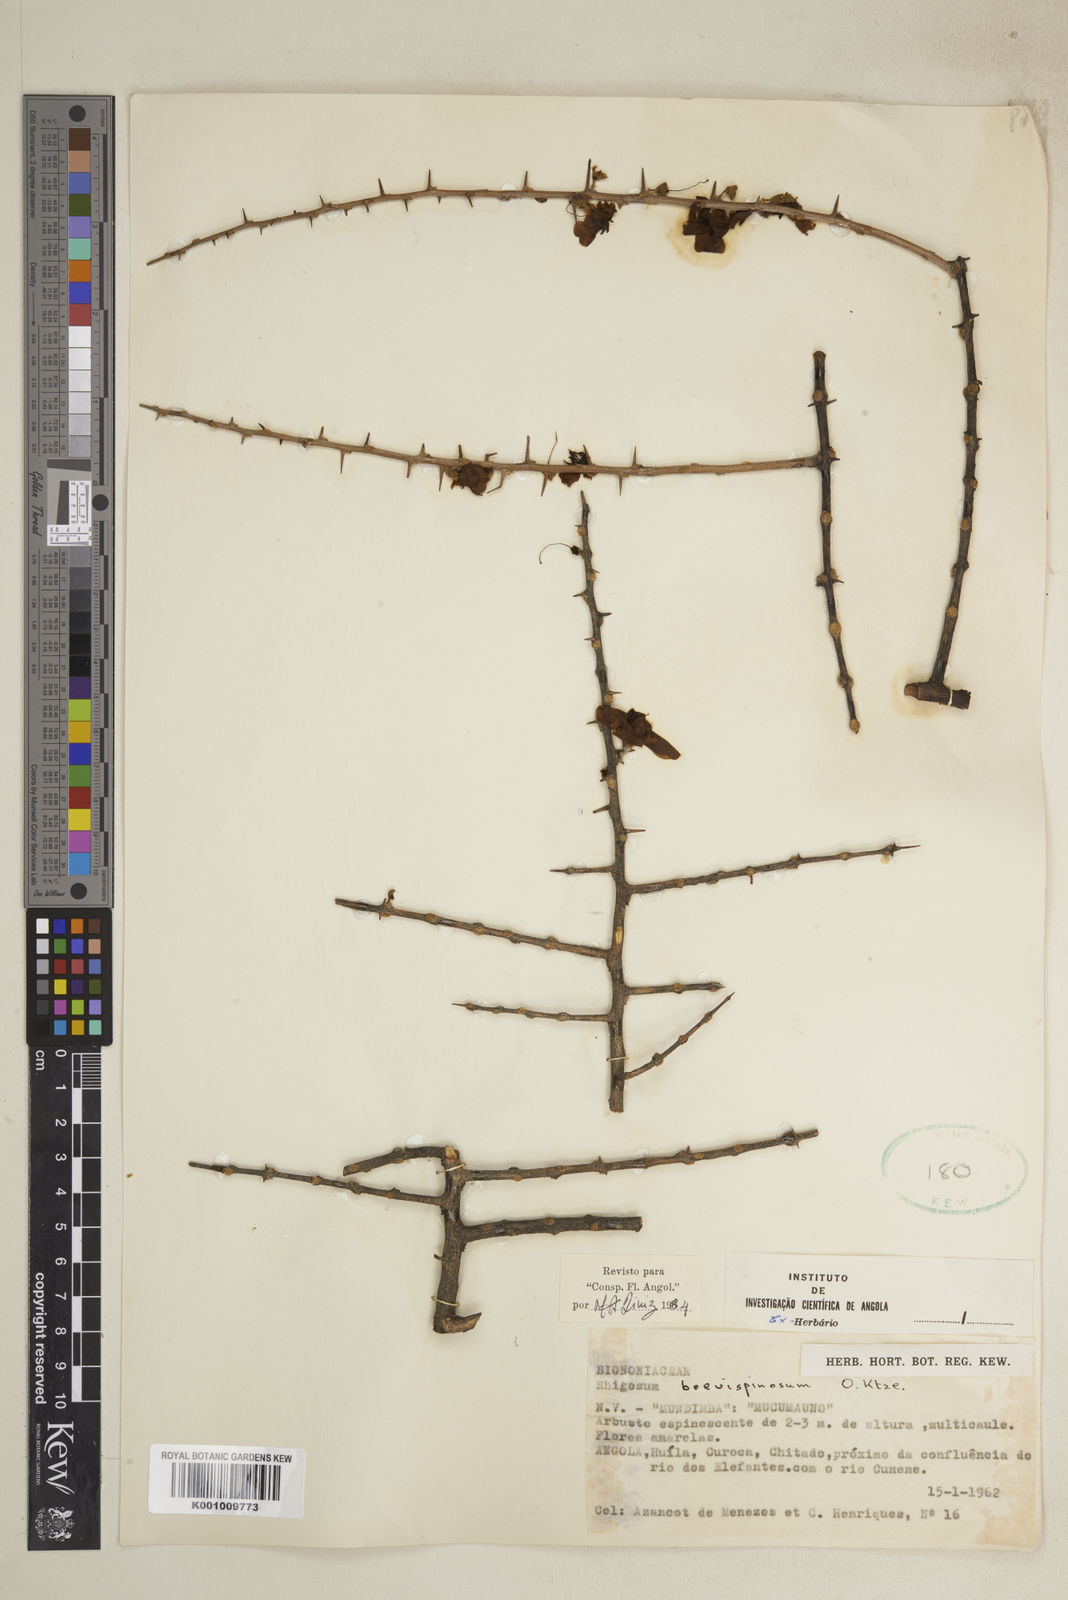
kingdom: Plantae
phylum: Tracheophyta
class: Magnoliopsida
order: Lamiales
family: Bignoniaceae
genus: Rhigozum
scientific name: Rhigozum brevispinosum
